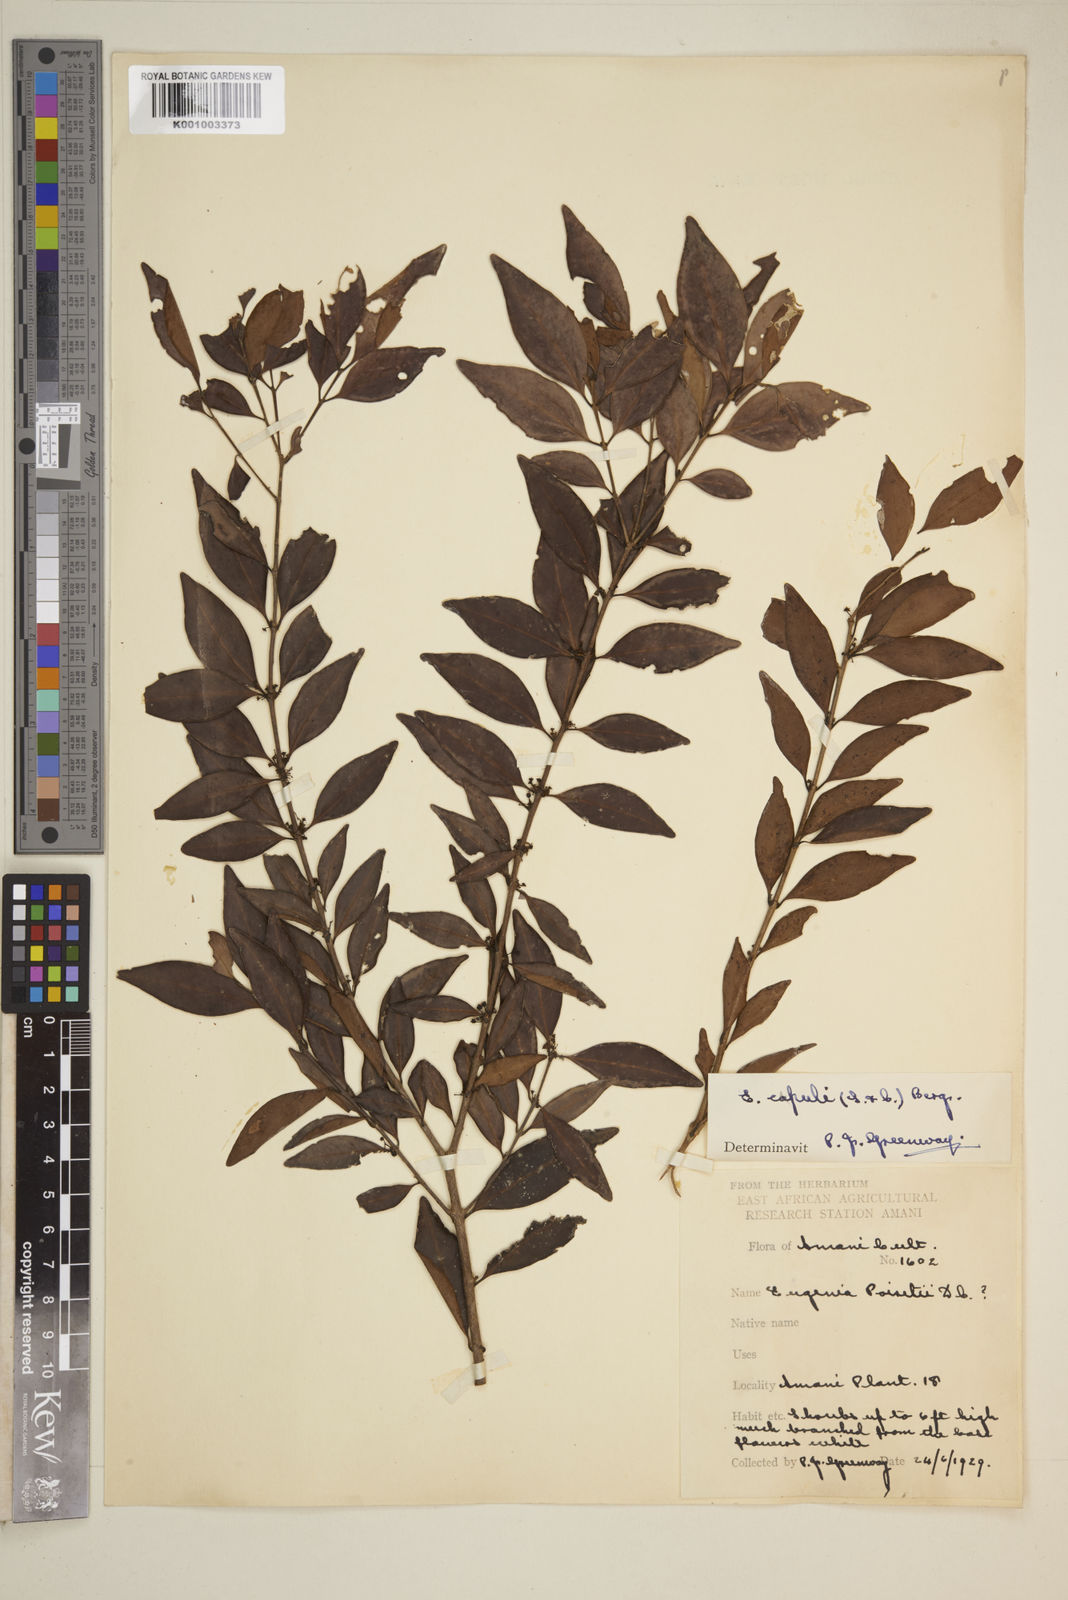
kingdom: Plantae
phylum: Tracheophyta
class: Magnoliopsida
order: Myrtales
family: Myrtaceae
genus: Eugenia
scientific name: Eugenia capuli
